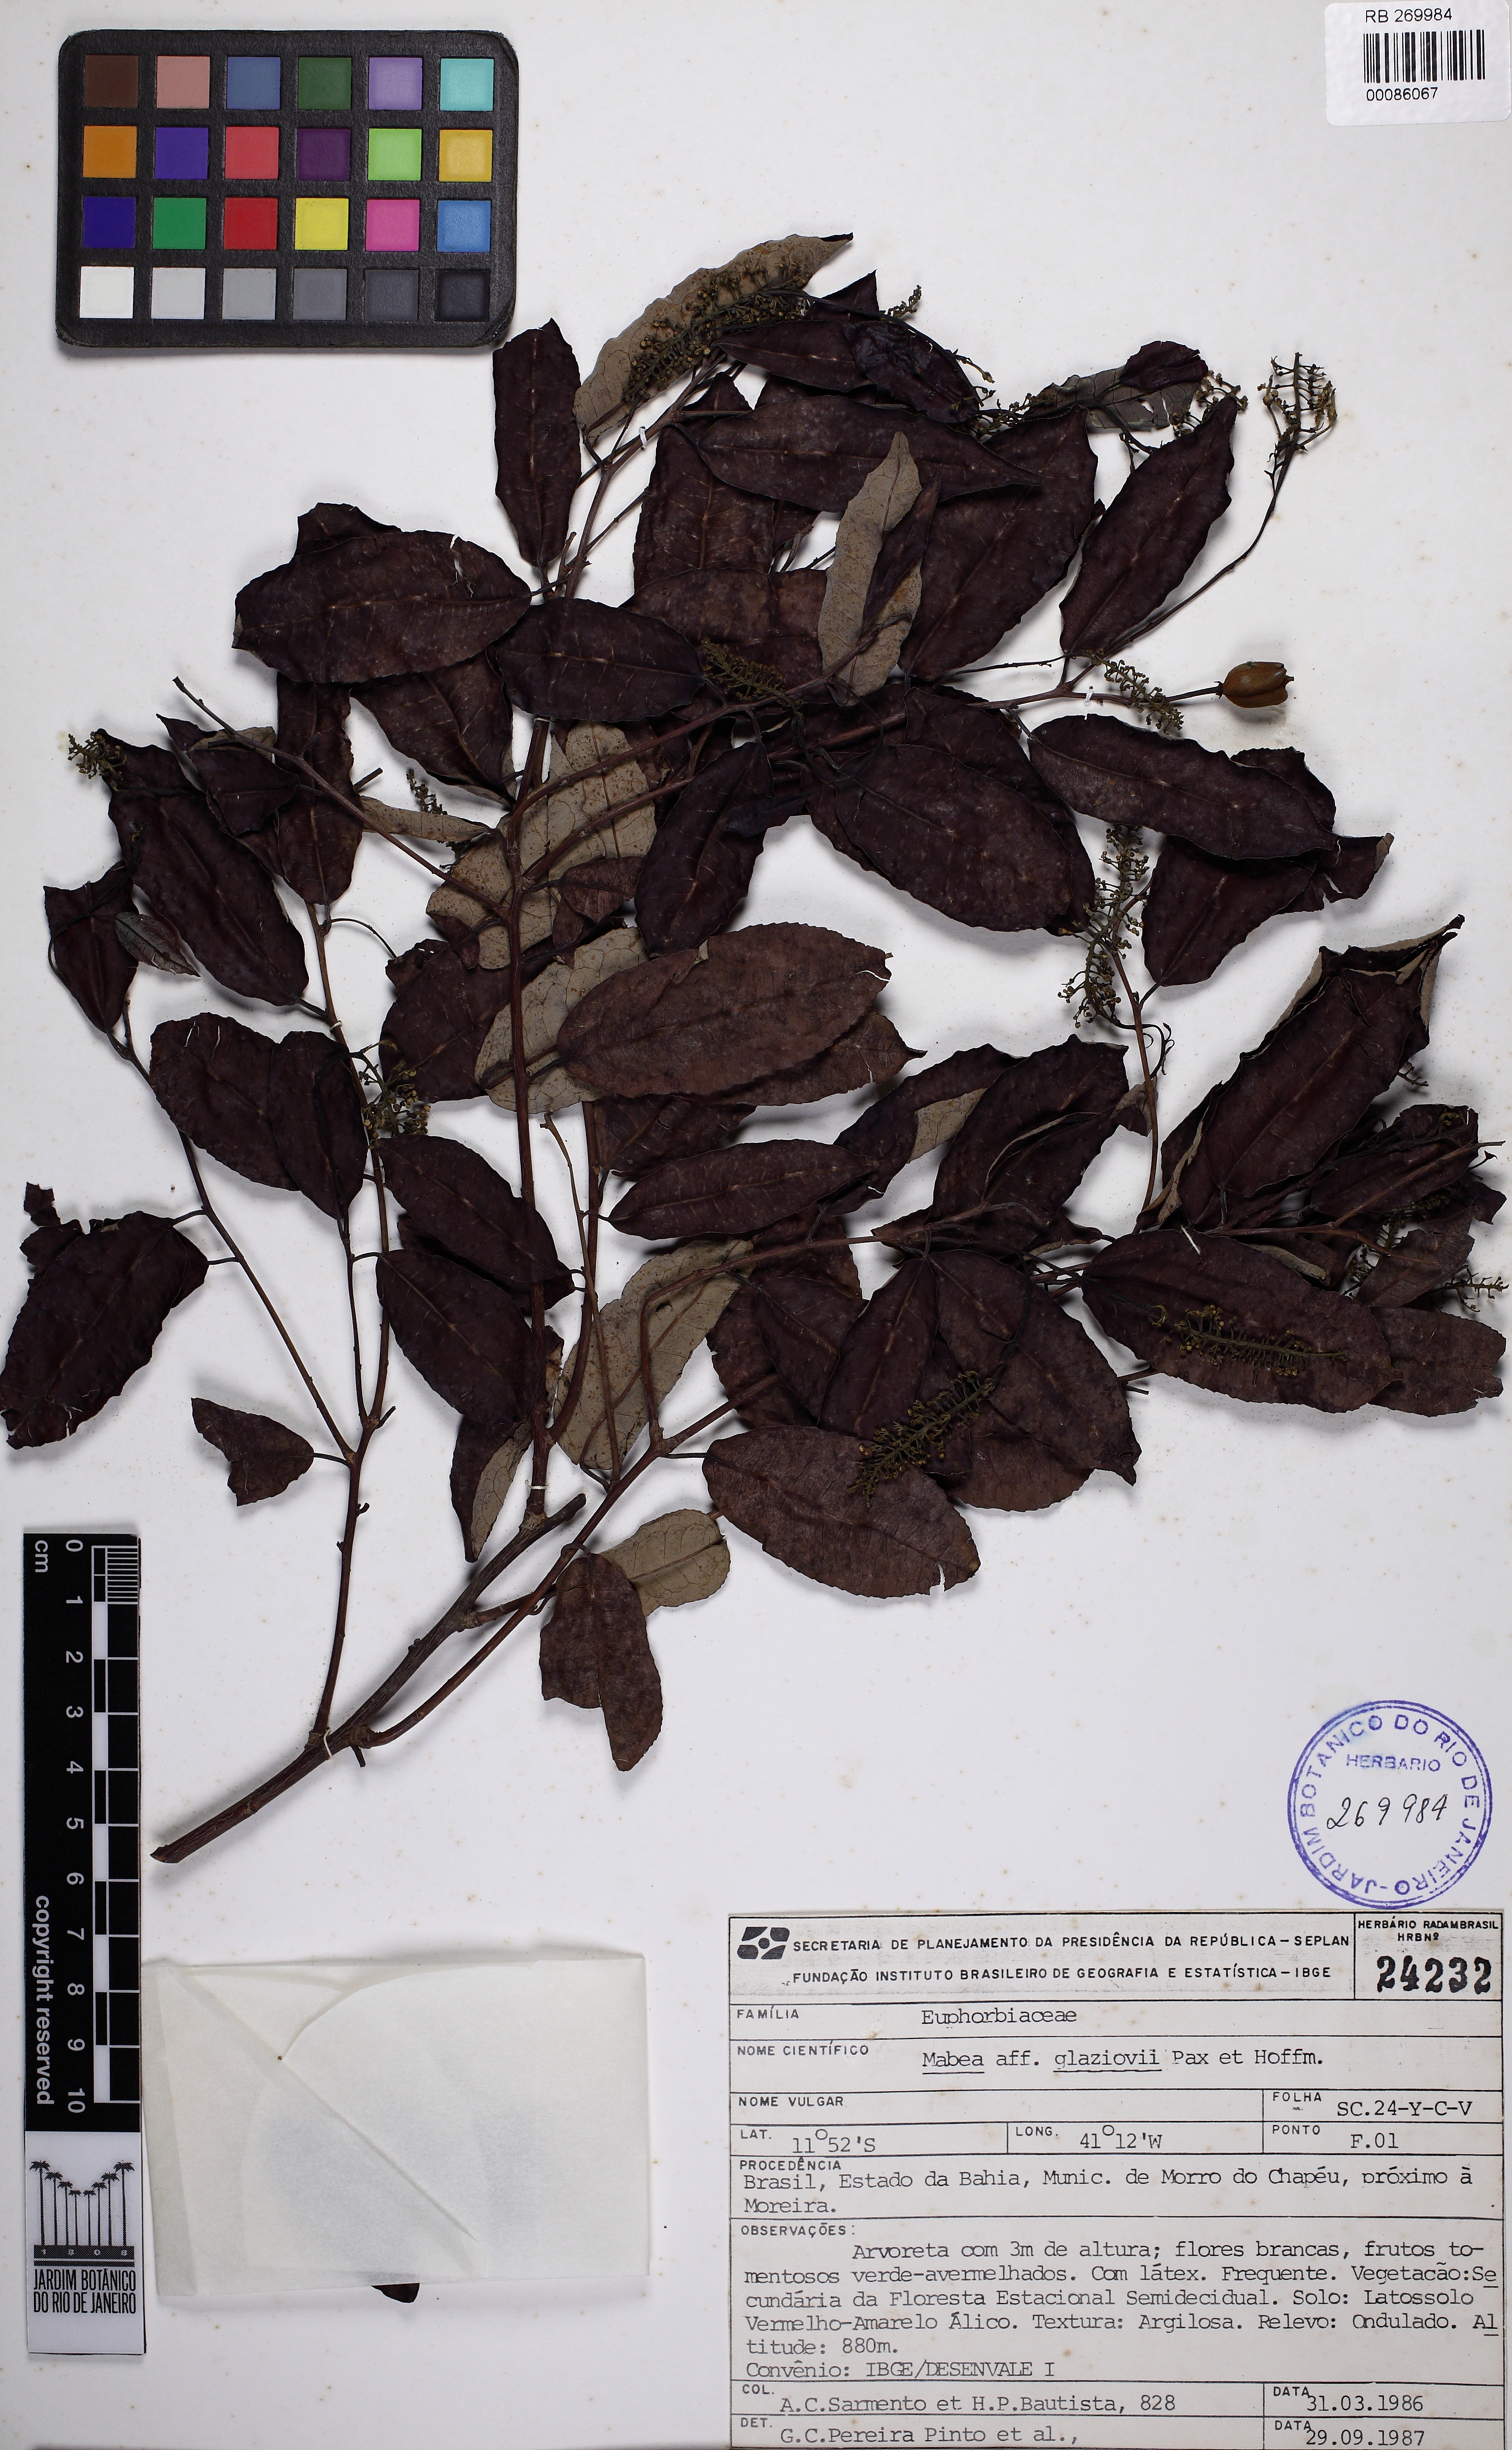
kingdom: Plantae
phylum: Tracheophyta
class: Magnoliopsida
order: Malpighiales
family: Euphorbiaceae
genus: Mabea
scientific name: Mabea glaziovii
